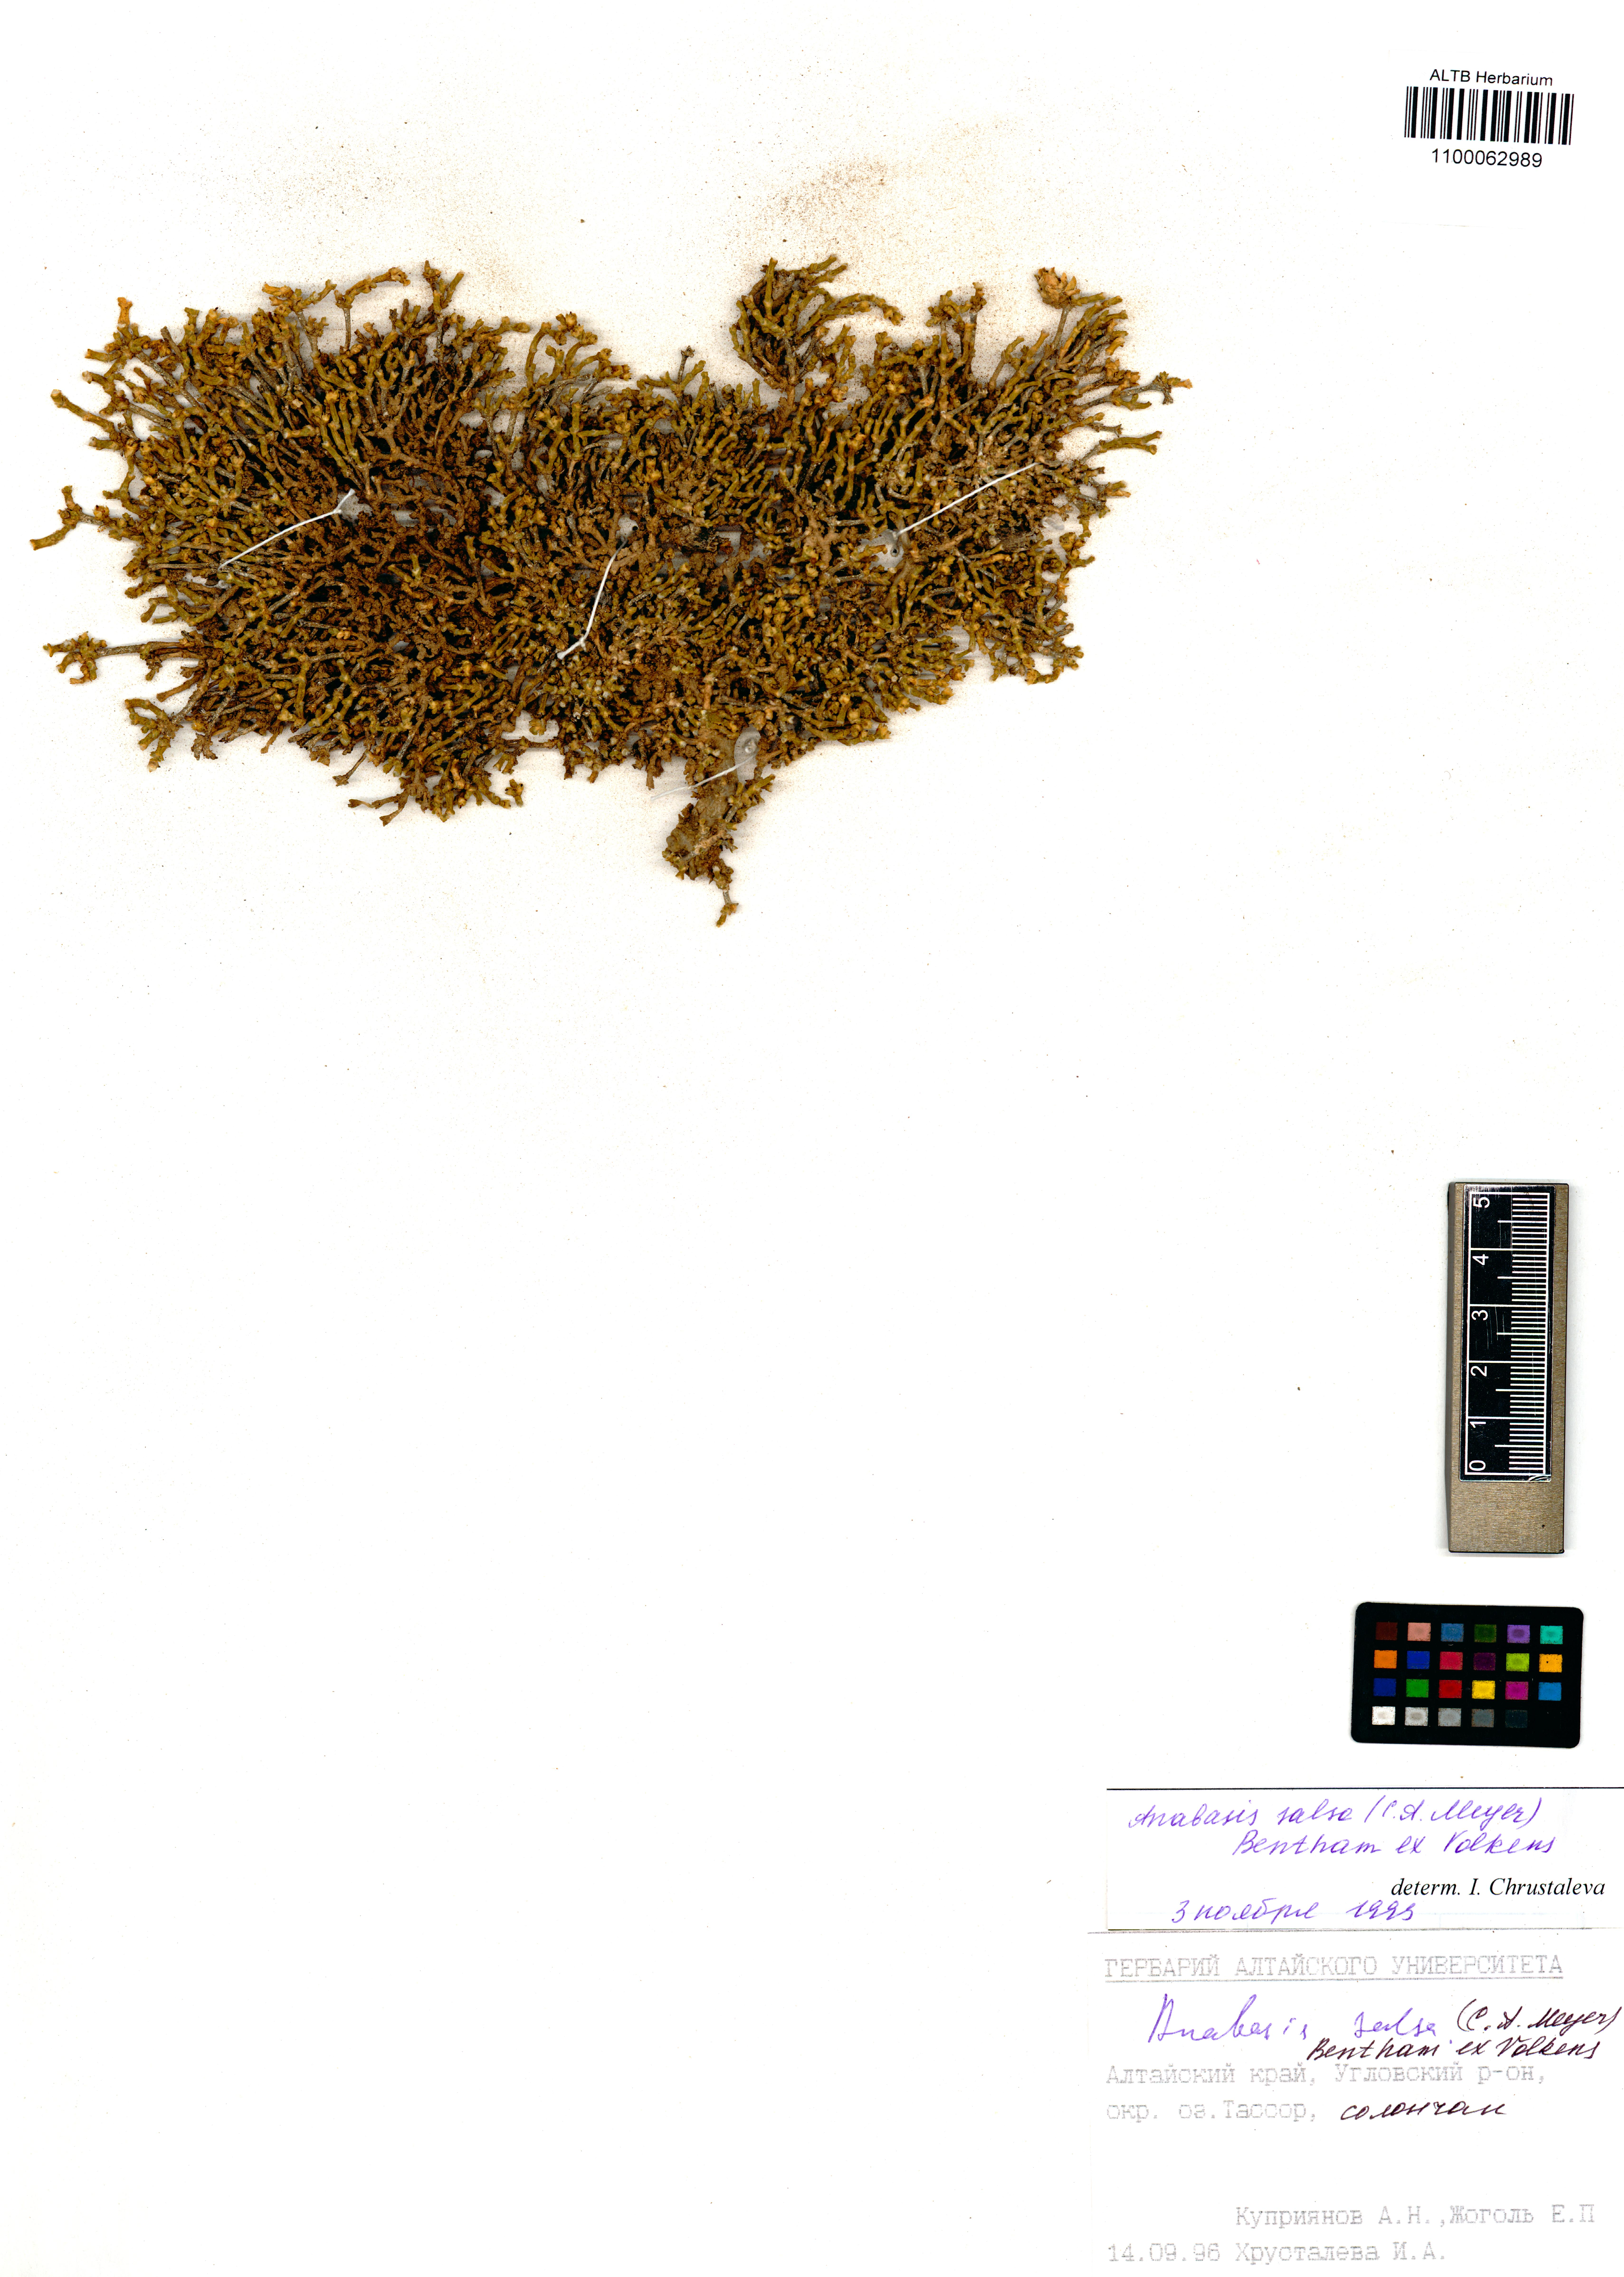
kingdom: Plantae
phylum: Tracheophyta
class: Magnoliopsida
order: Caryophyllales
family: Amaranthaceae
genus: Anabasis
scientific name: Anabasis salsa
